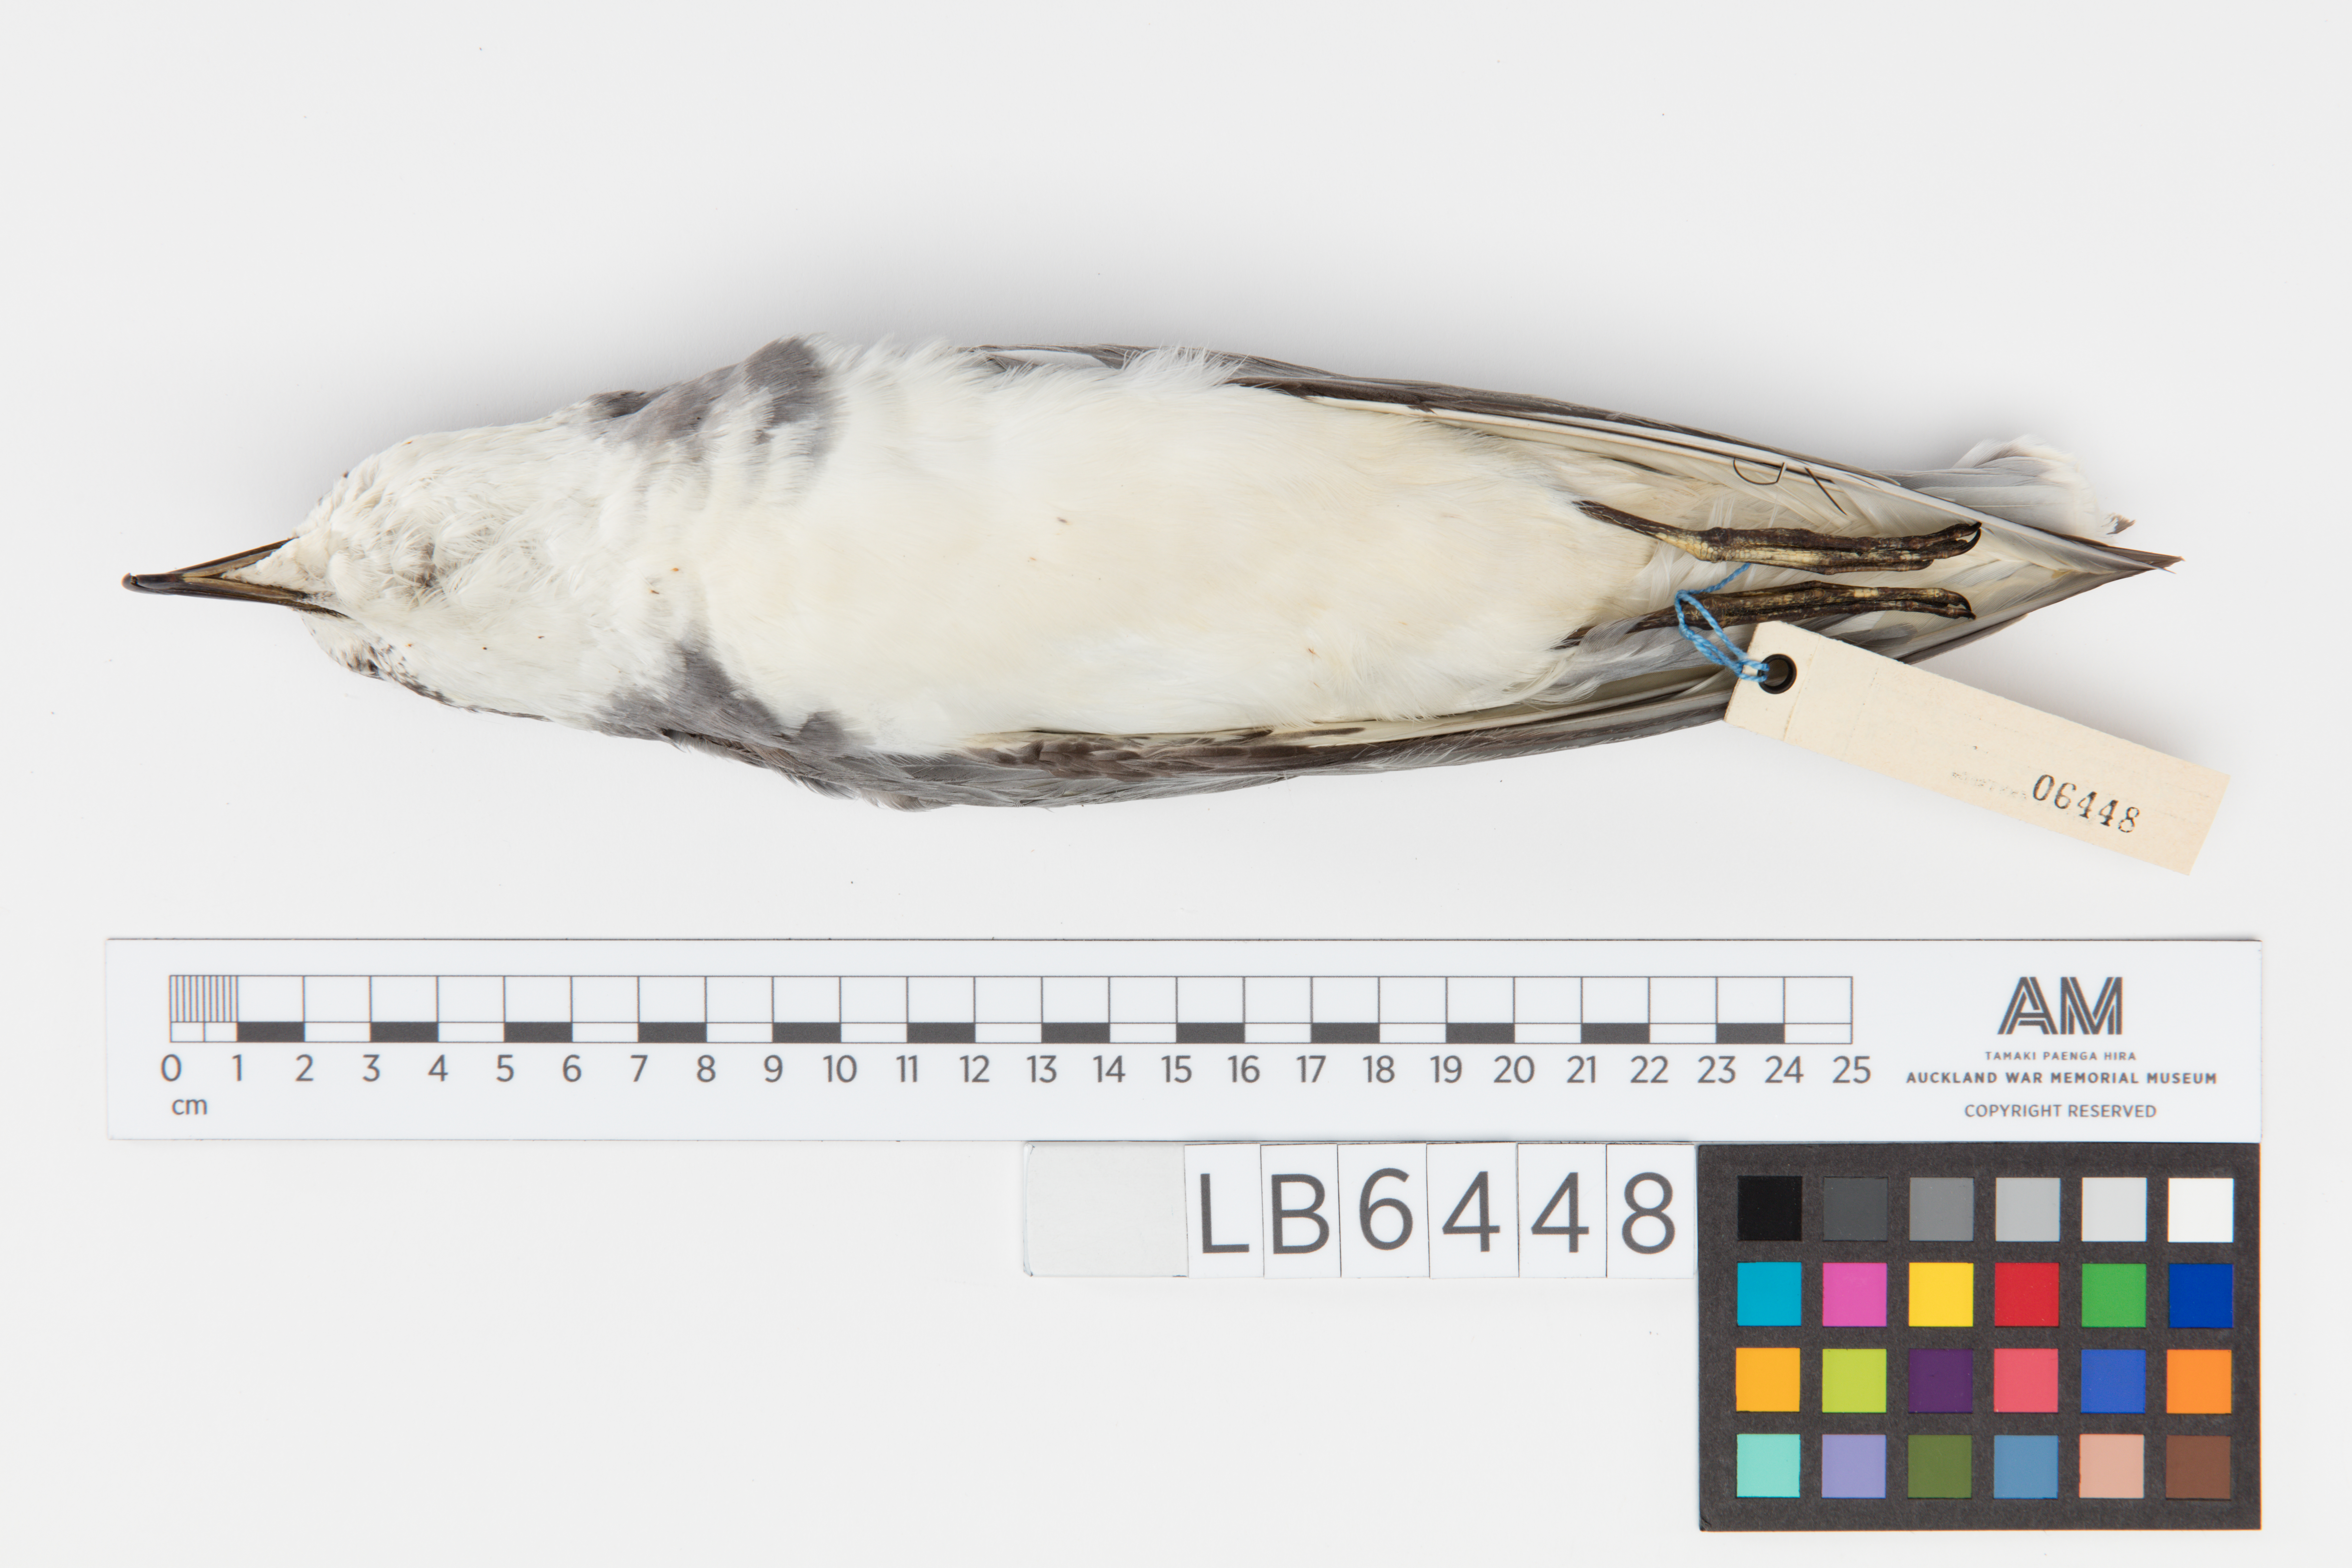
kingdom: Animalia
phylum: Chordata
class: Aves
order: Procellariiformes
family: Procellariidae
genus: Halobaena
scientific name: Halobaena caerulea
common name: Blue petrel
